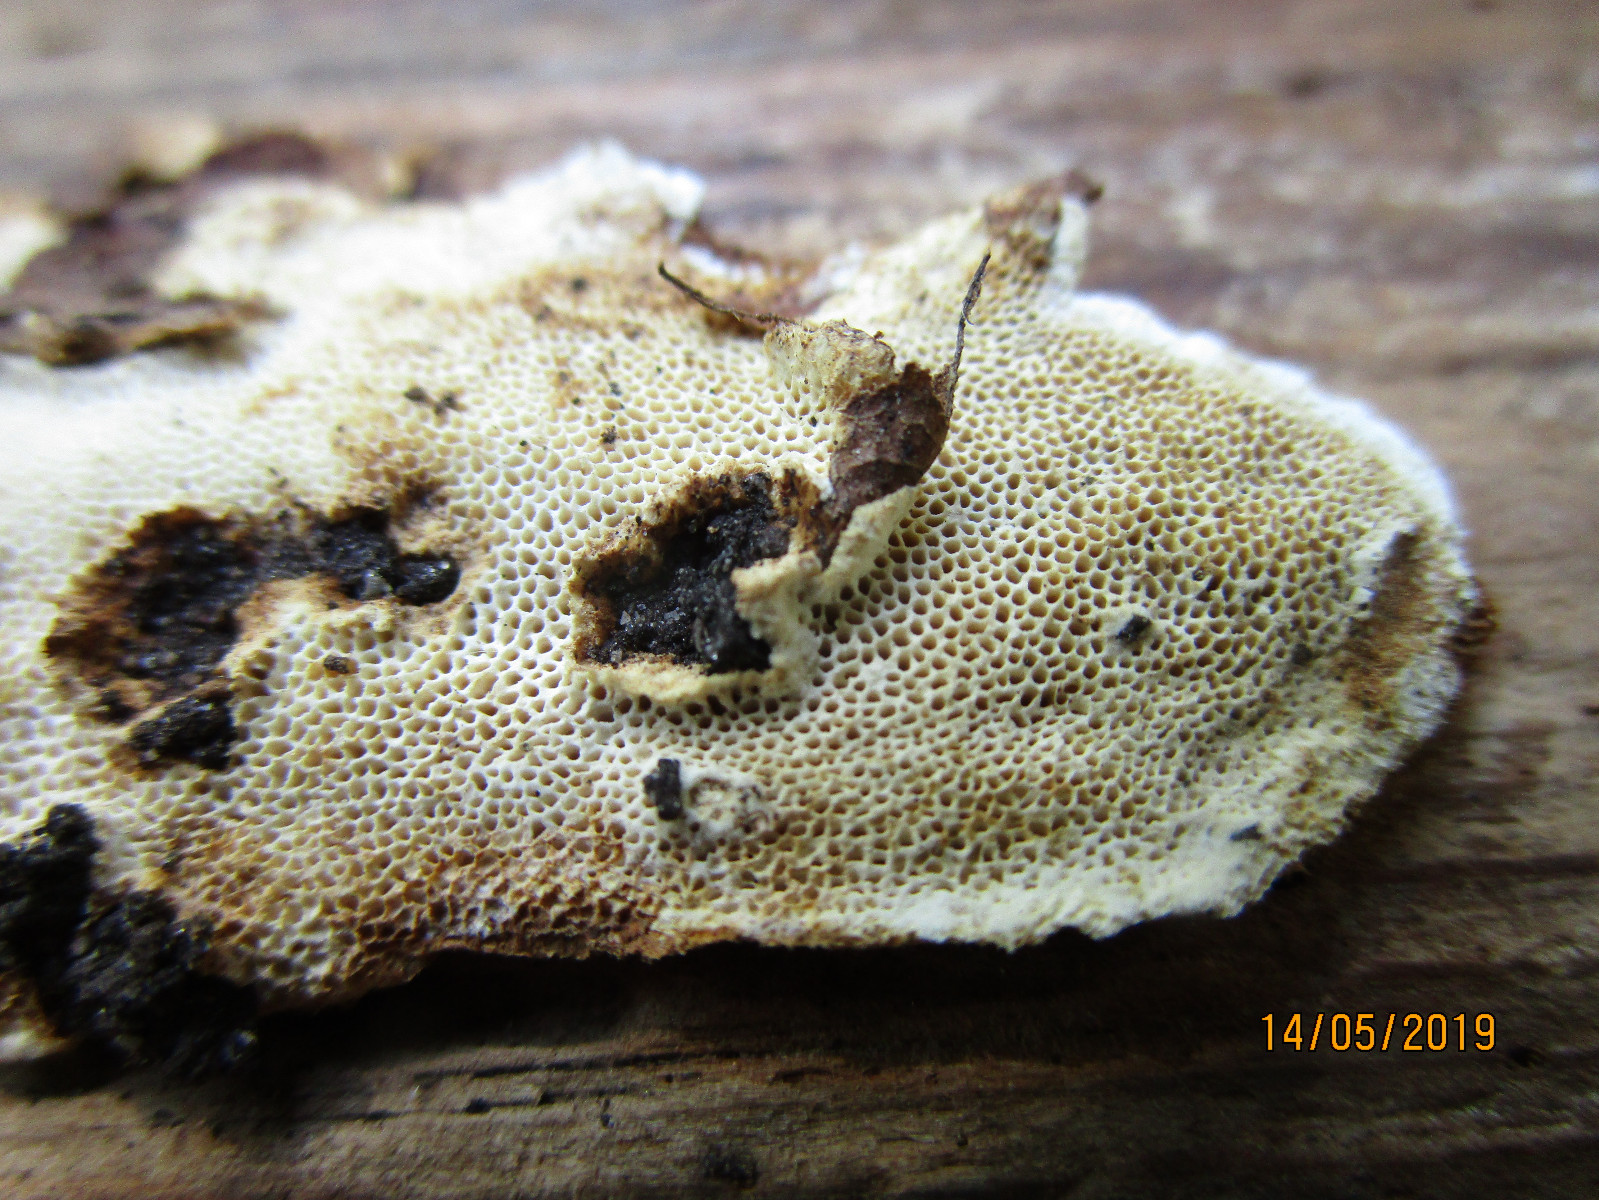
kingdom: Fungi
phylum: Basidiomycota
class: Agaricomycetes
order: Polyporales
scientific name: Polyporales
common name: poresvampordenen
